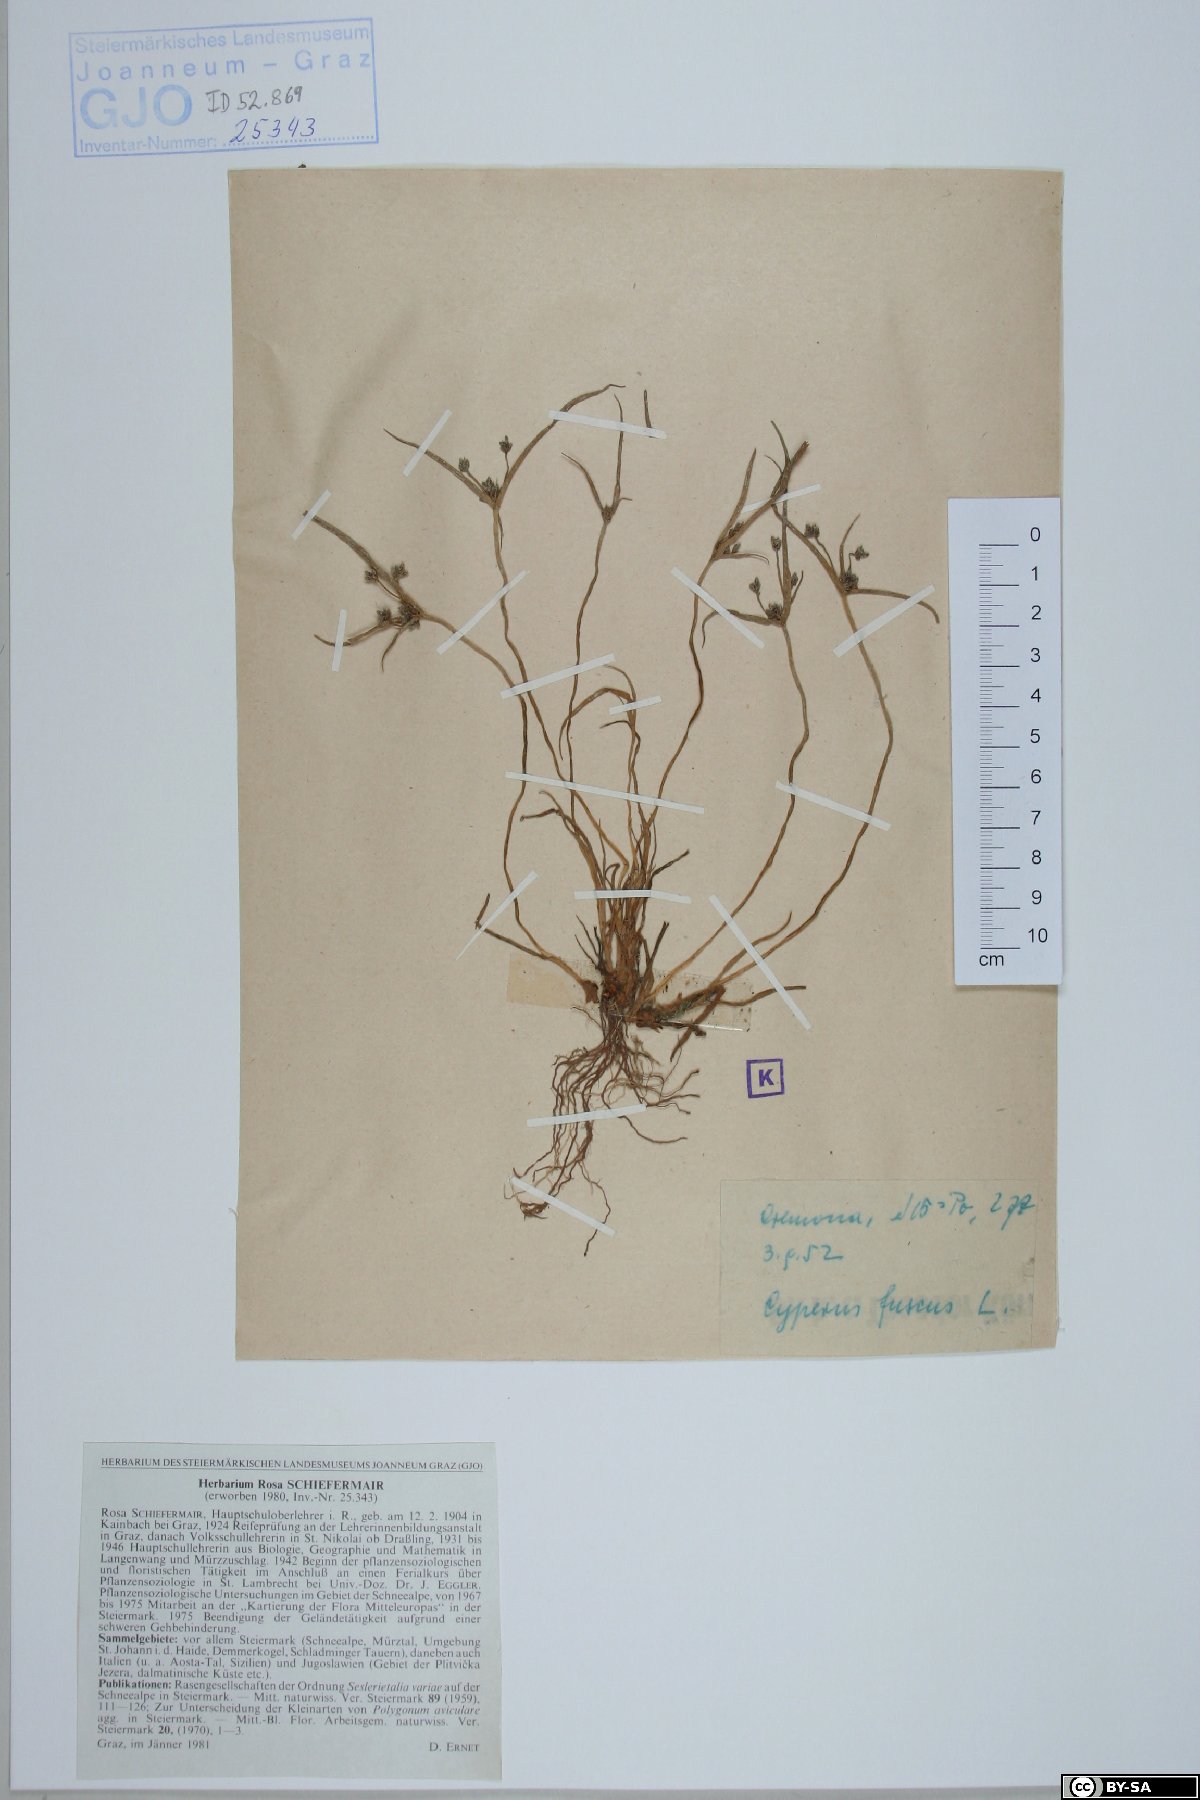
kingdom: Plantae
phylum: Tracheophyta
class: Liliopsida
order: Poales
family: Cyperaceae
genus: Cyperus
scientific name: Cyperus fuscus
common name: Brown galingale
